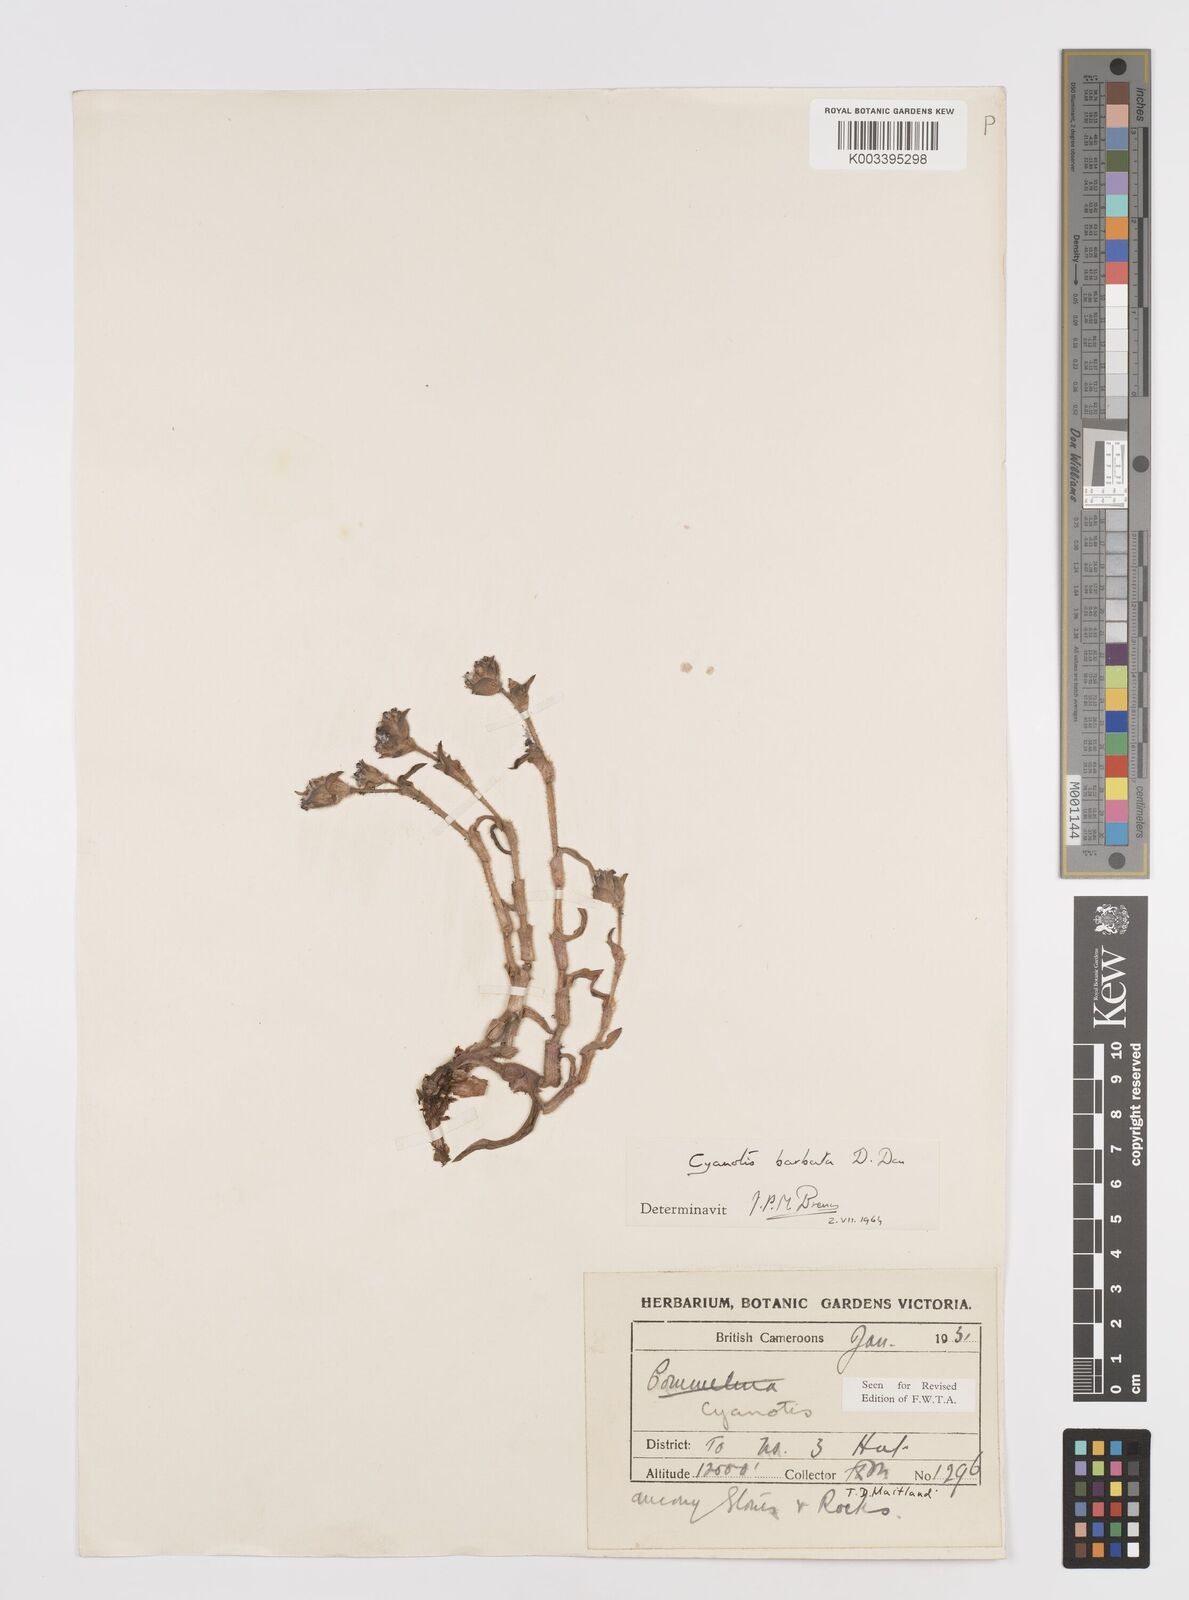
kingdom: Plantae
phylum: Tracheophyta
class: Liliopsida
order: Commelinales
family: Commelinaceae
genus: Cyanotis
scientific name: Cyanotis vaga
